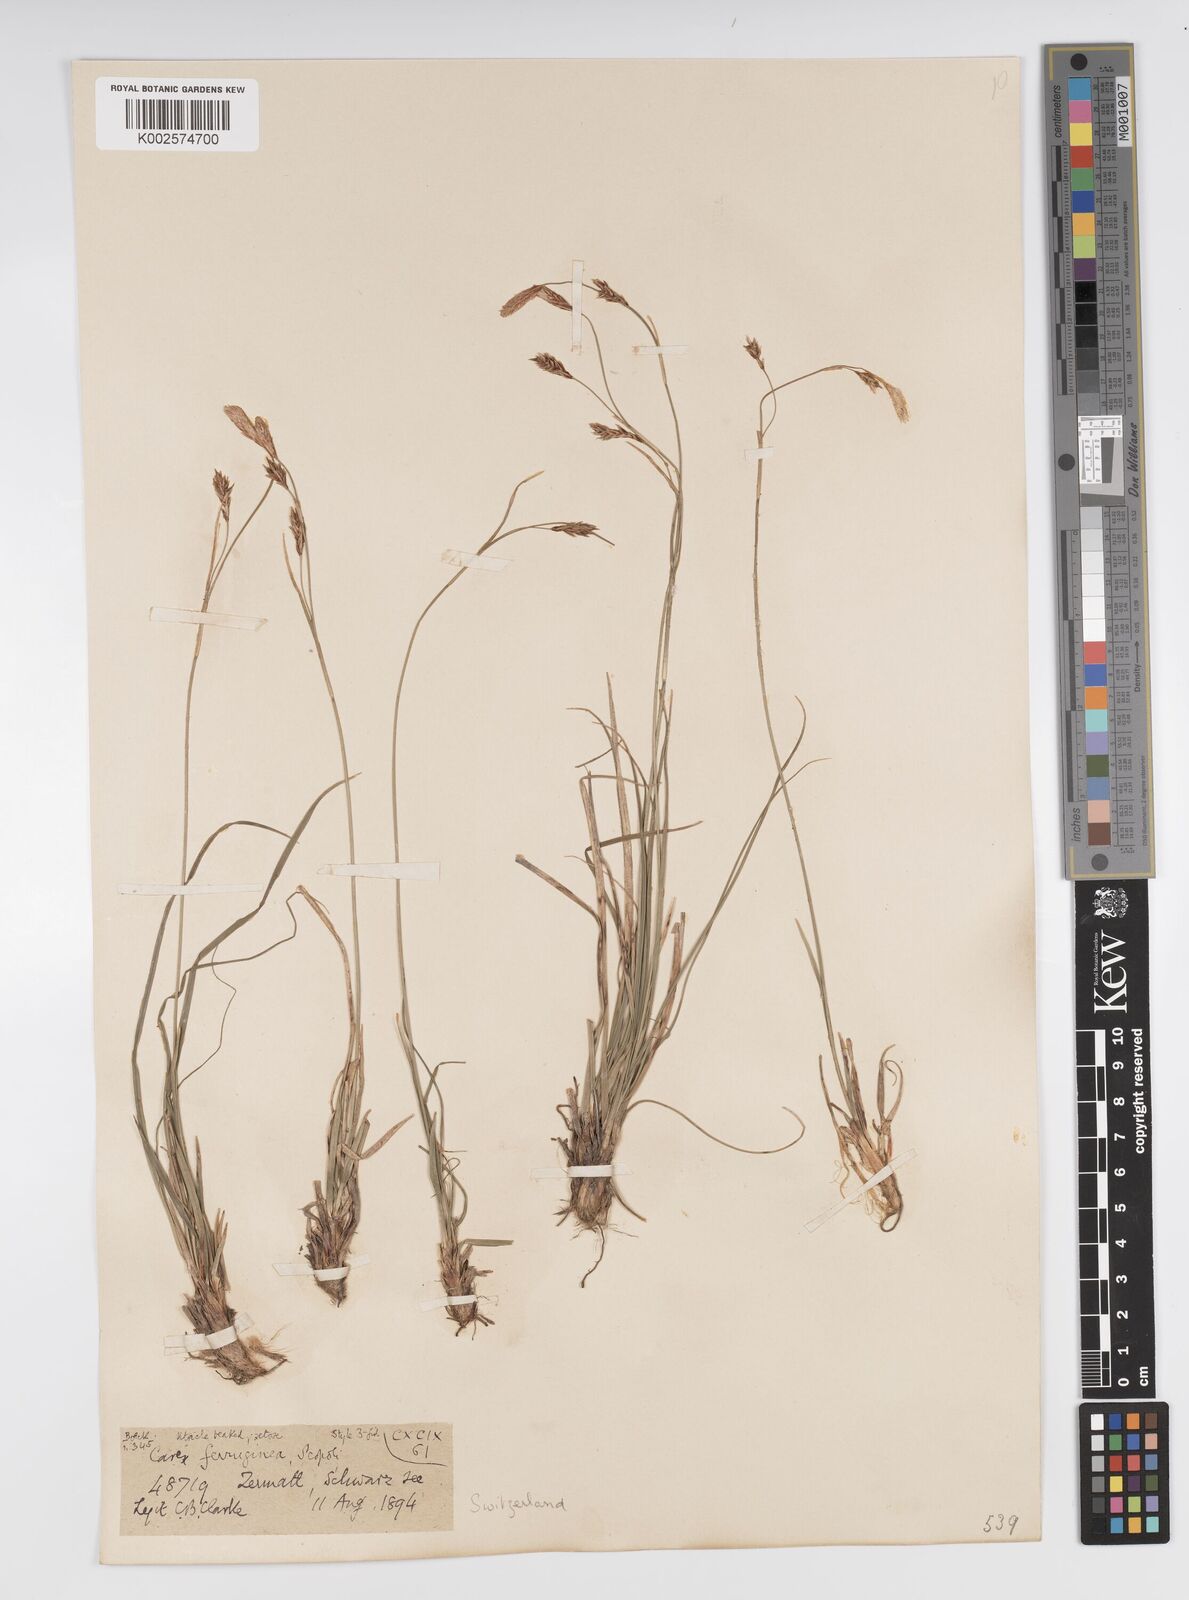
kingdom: Plantae
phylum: Tracheophyta
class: Liliopsida
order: Poales
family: Cyperaceae
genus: Carex
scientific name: Carex ferruginea
